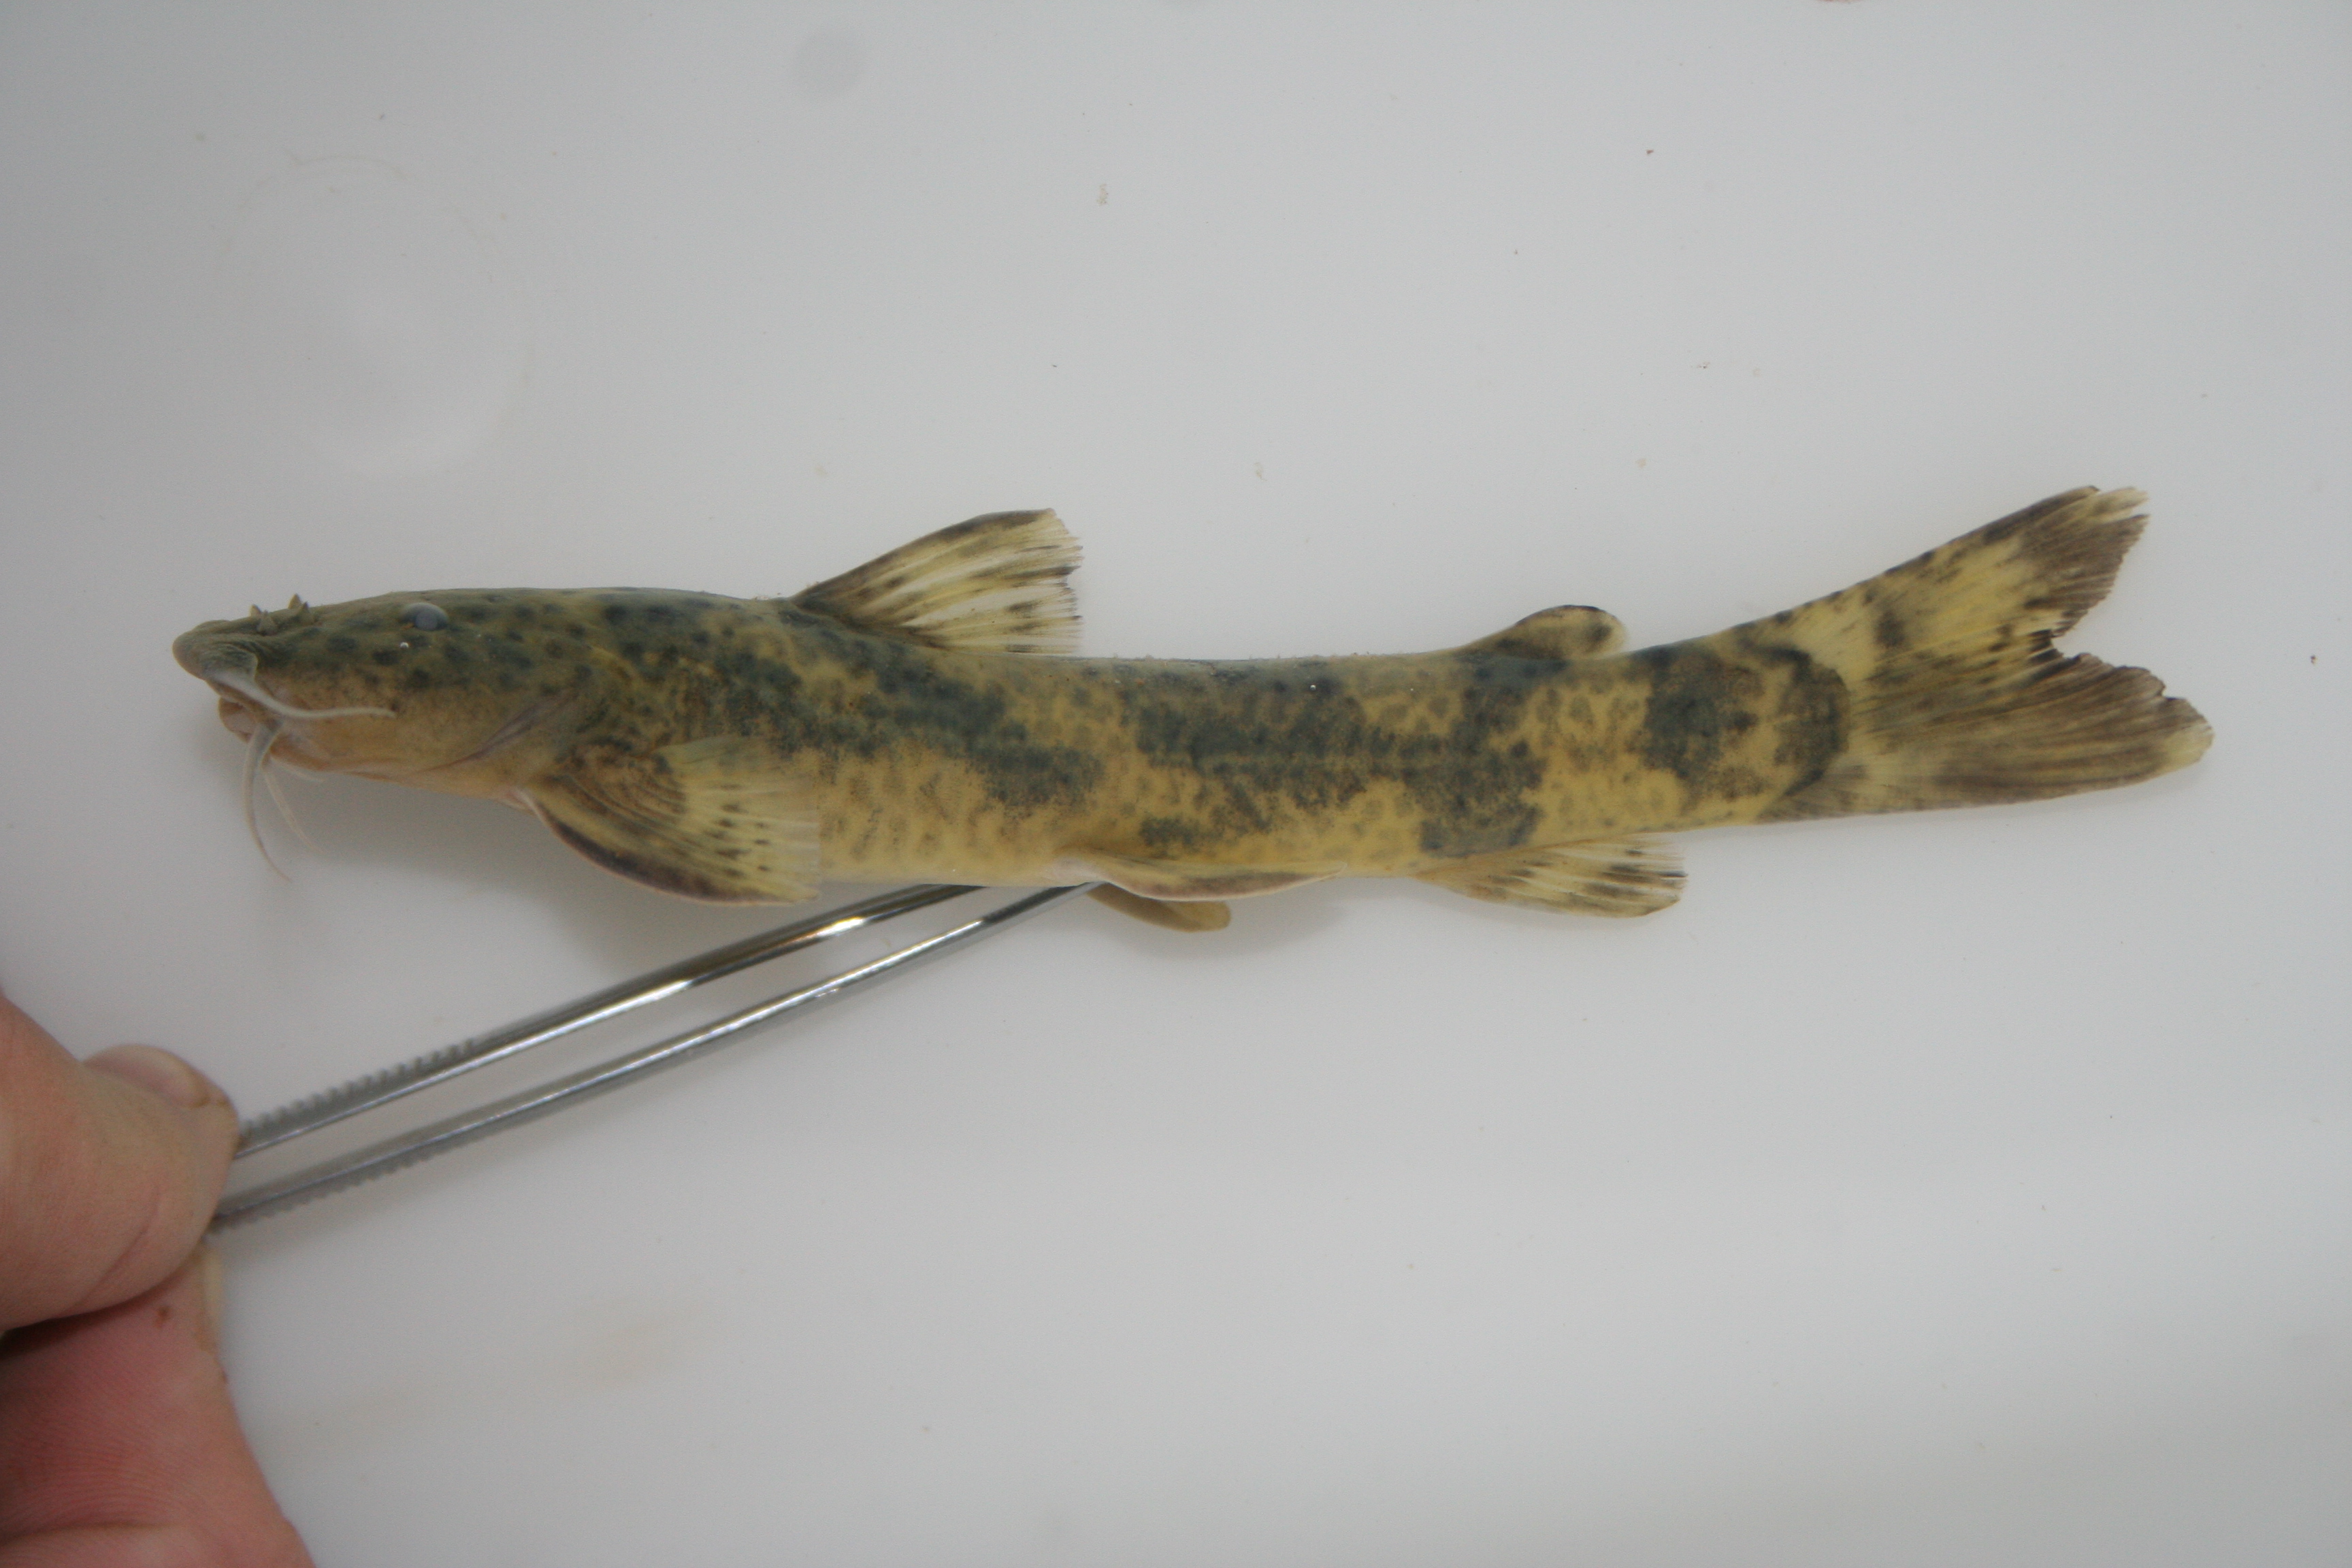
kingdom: Animalia
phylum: Chordata
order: Siluriformes
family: Amphiliidae
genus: Amphilius
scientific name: Amphilius pagei
